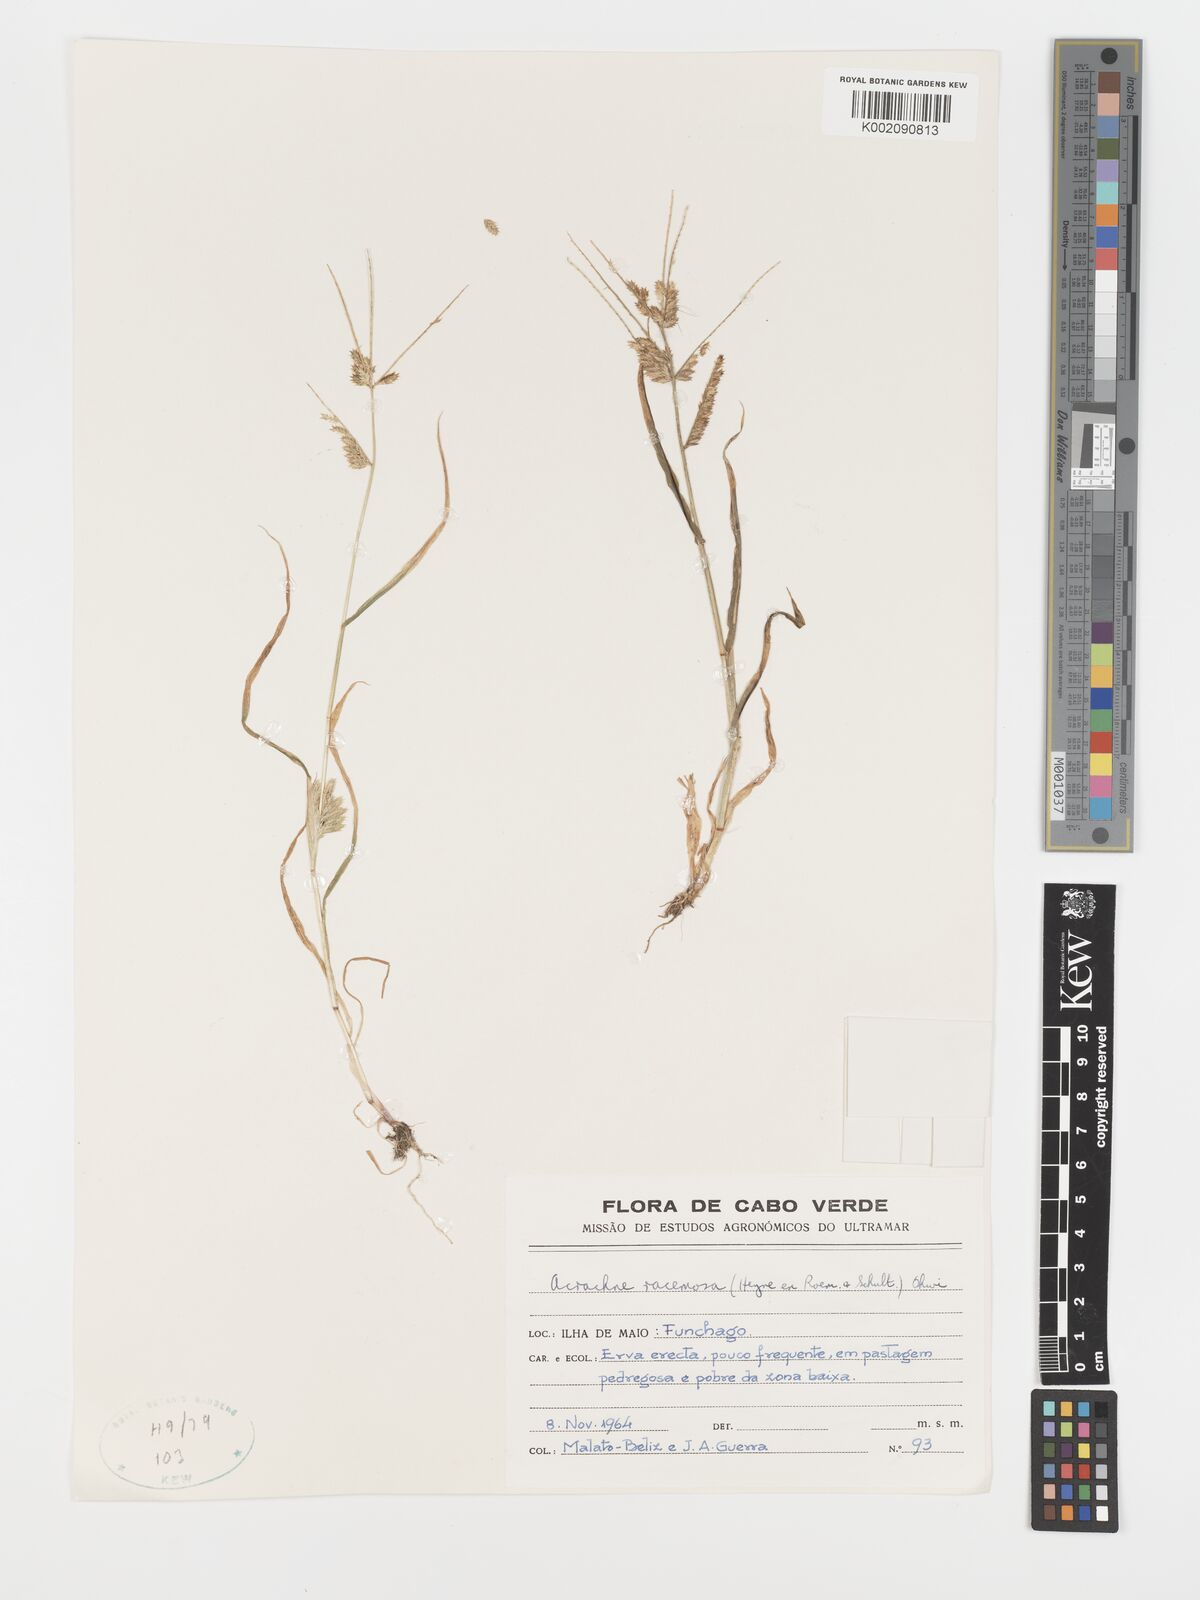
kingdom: Plantae
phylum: Tracheophyta
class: Liliopsida
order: Poales
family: Poaceae
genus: Acrachne
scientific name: Acrachne racemosa
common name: Goosegrass
